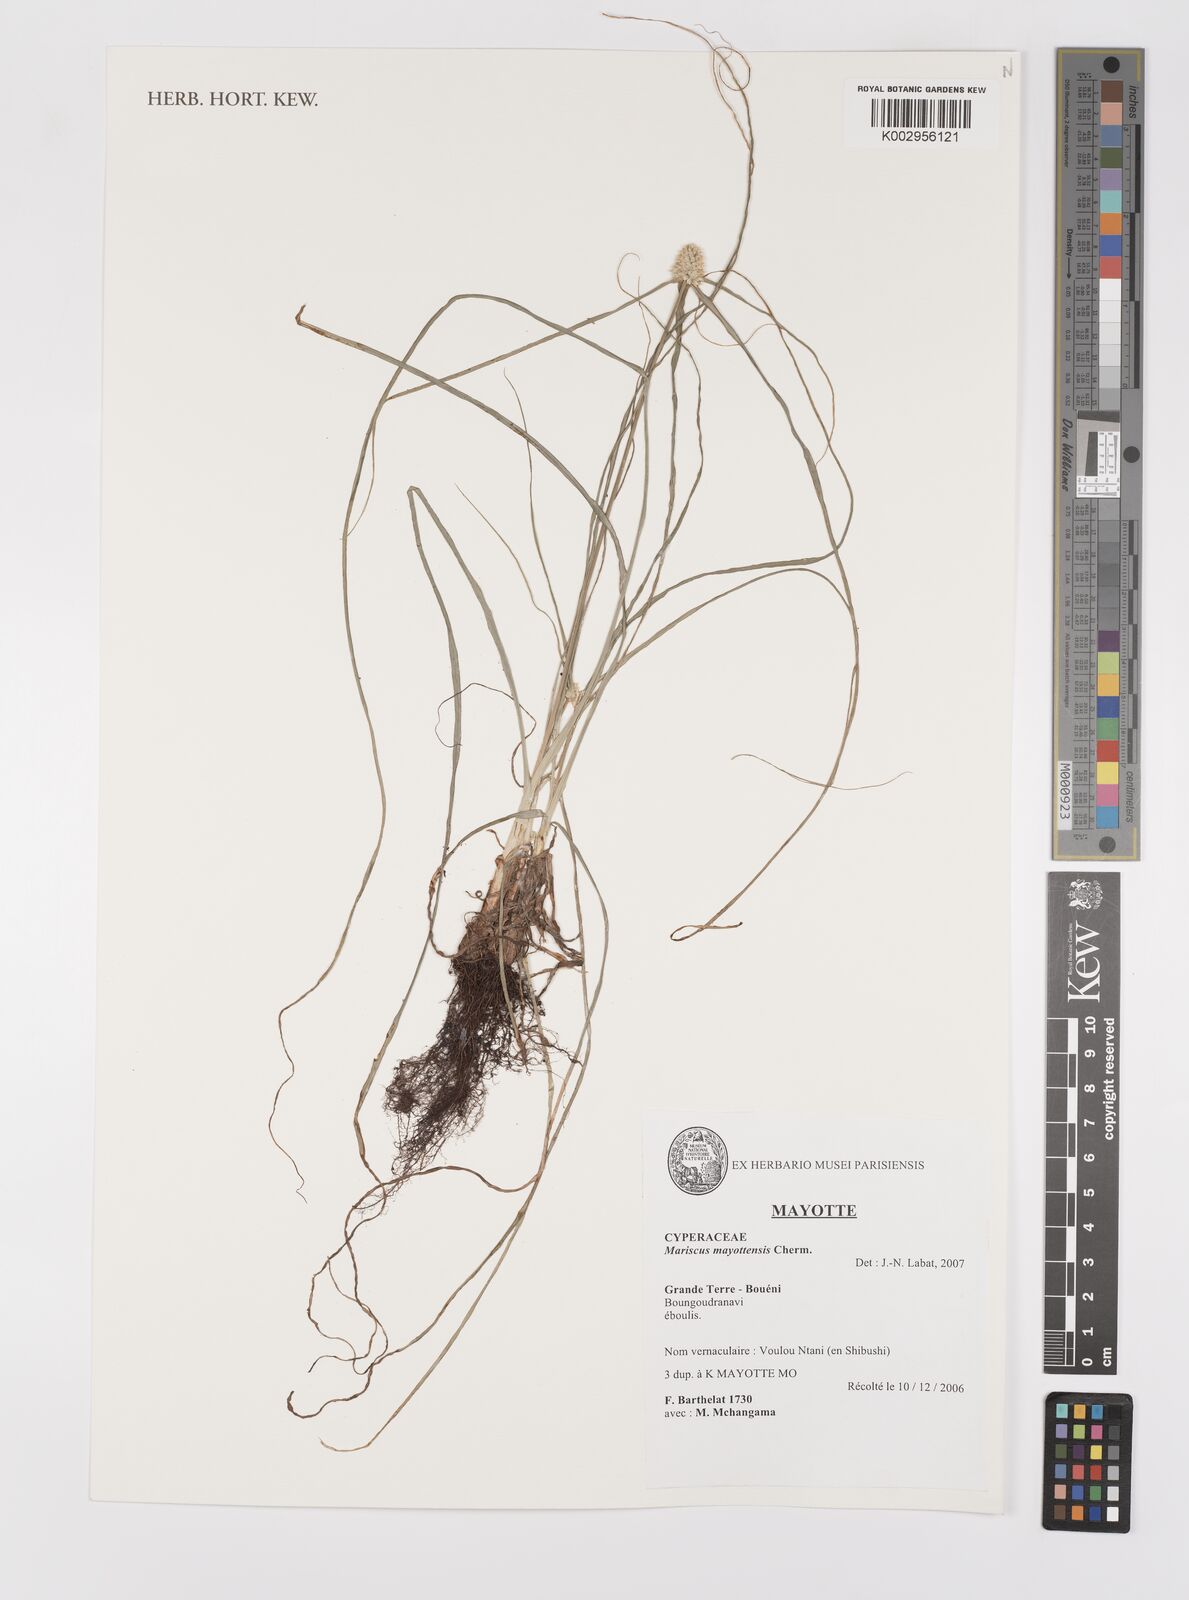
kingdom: Plantae
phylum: Tracheophyta
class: Liliopsida
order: Poales
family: Cyperaceae
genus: Cyperus
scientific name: Cyperus
